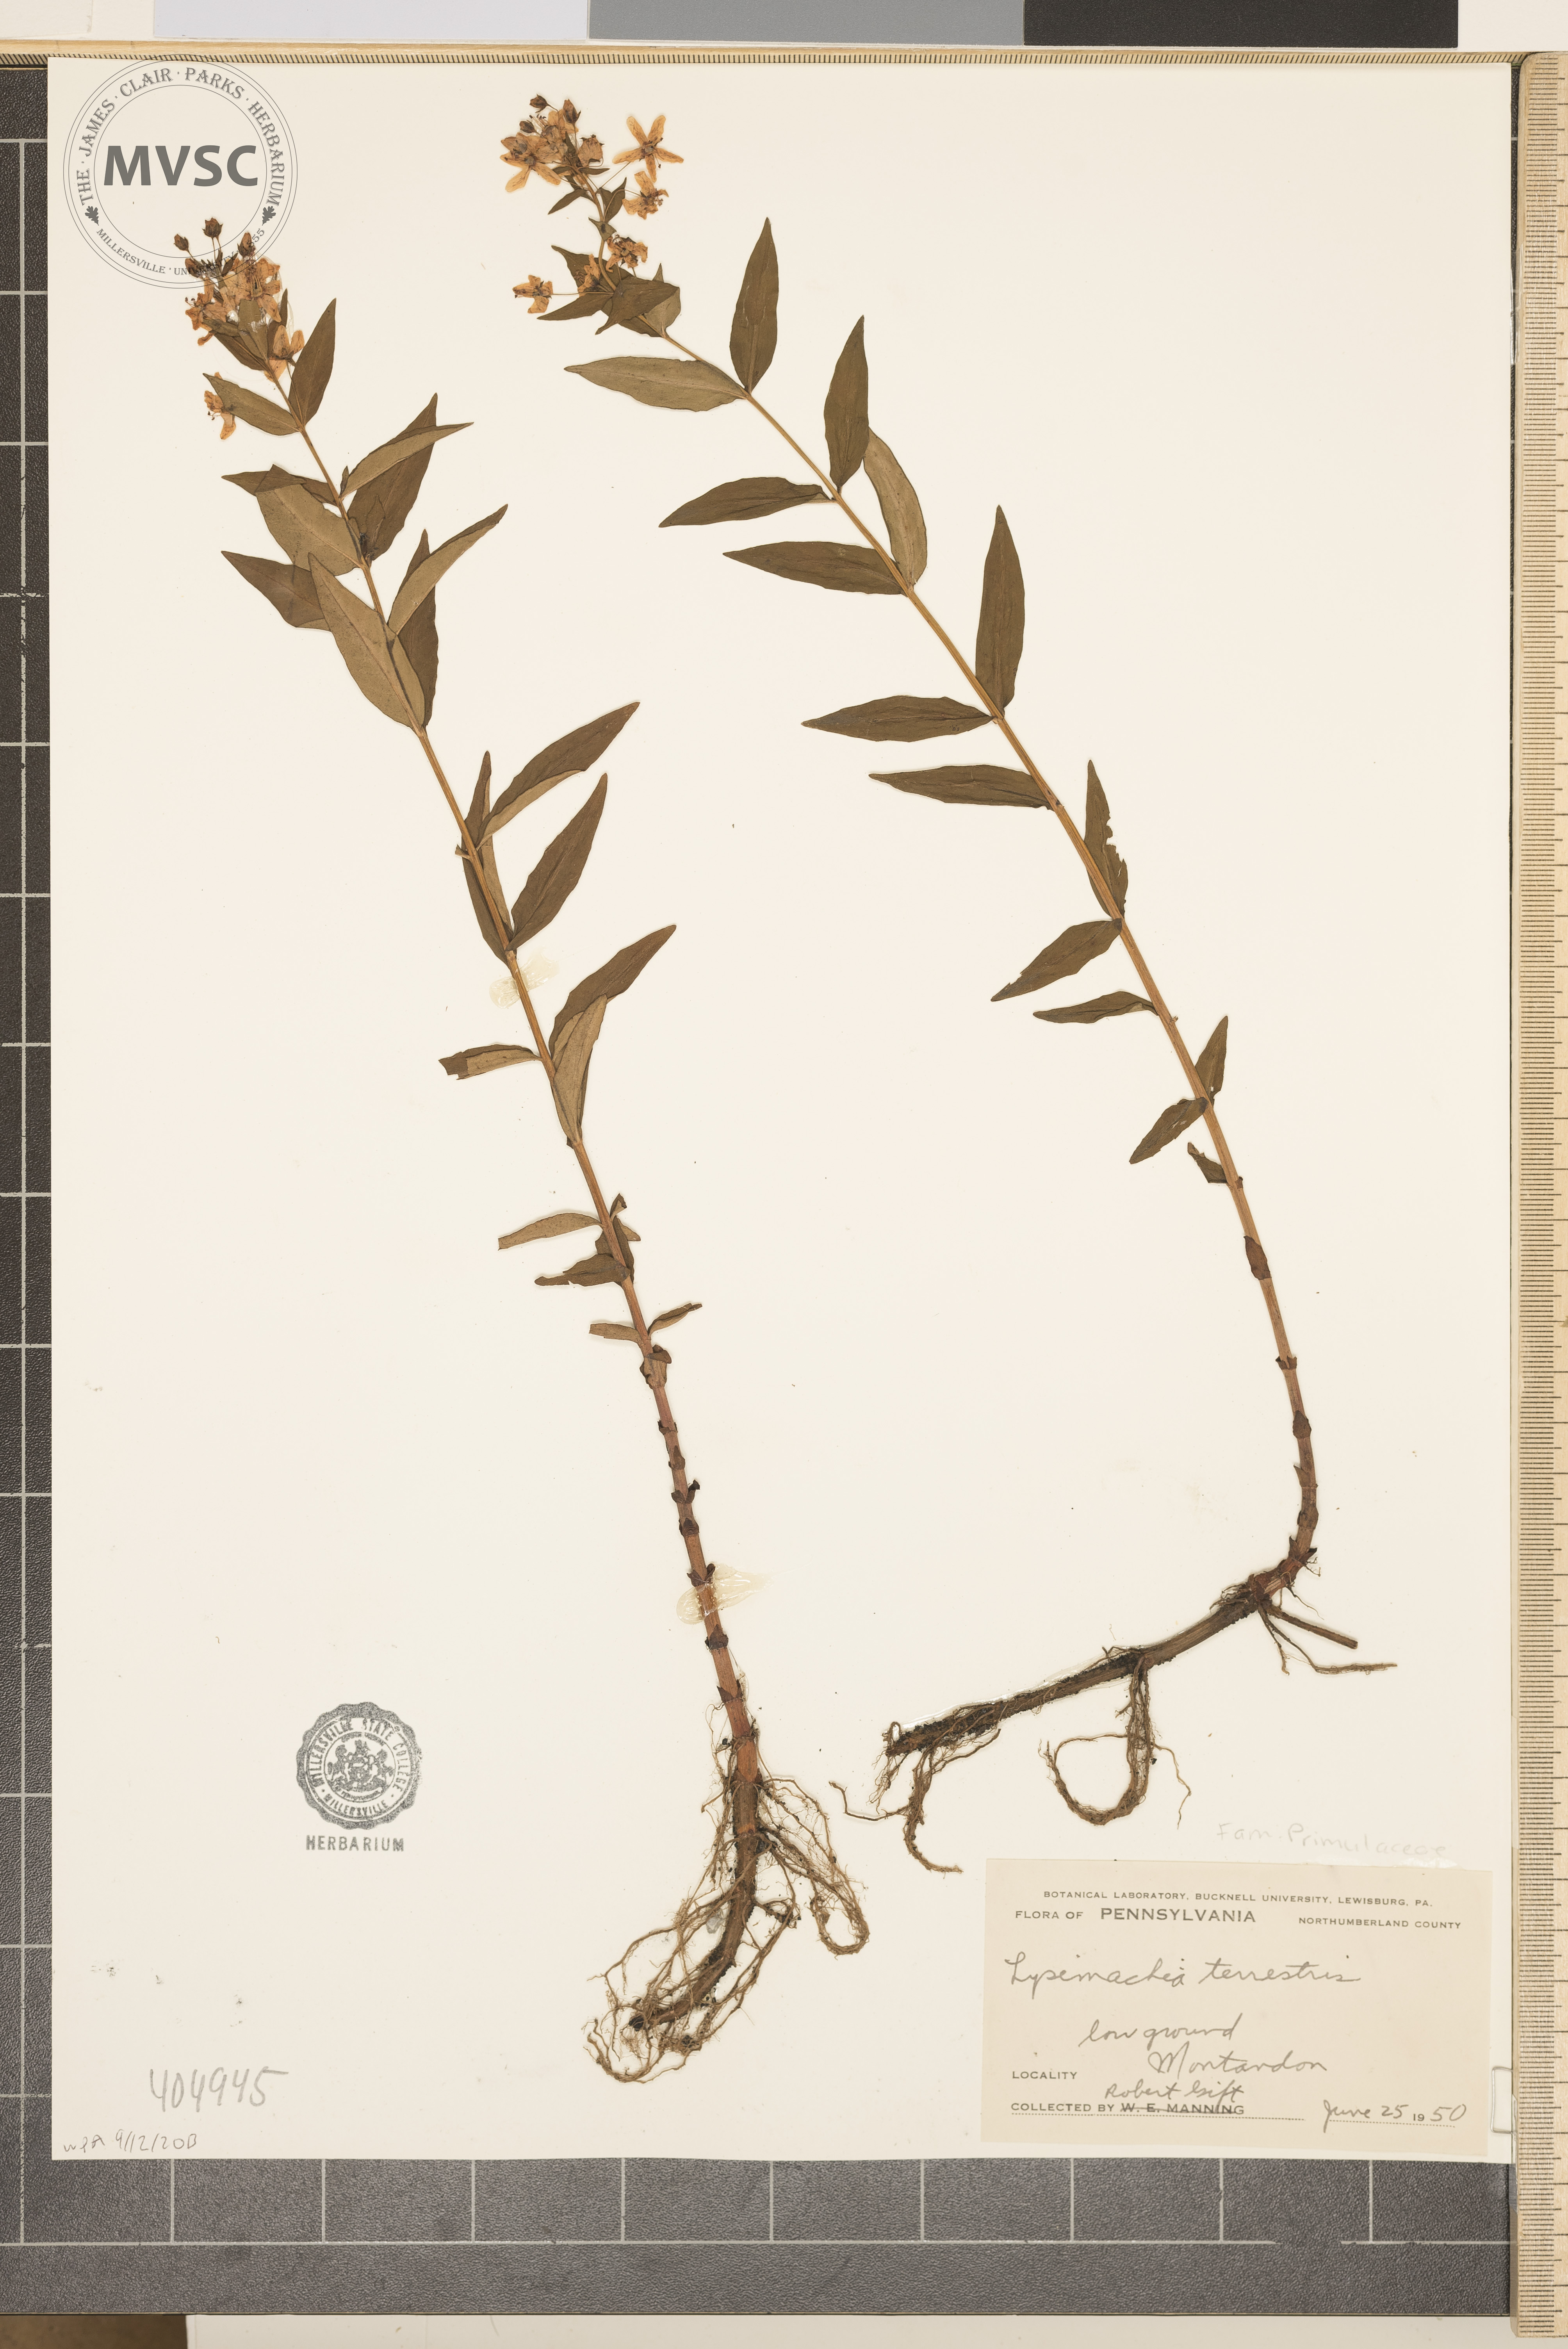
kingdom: Plantae
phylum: Tracheophyta
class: Magnoliopsida
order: Ericales
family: Primulaceae
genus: Lysimachia
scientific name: Lysimachia terrestris
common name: Lake loosestrife
